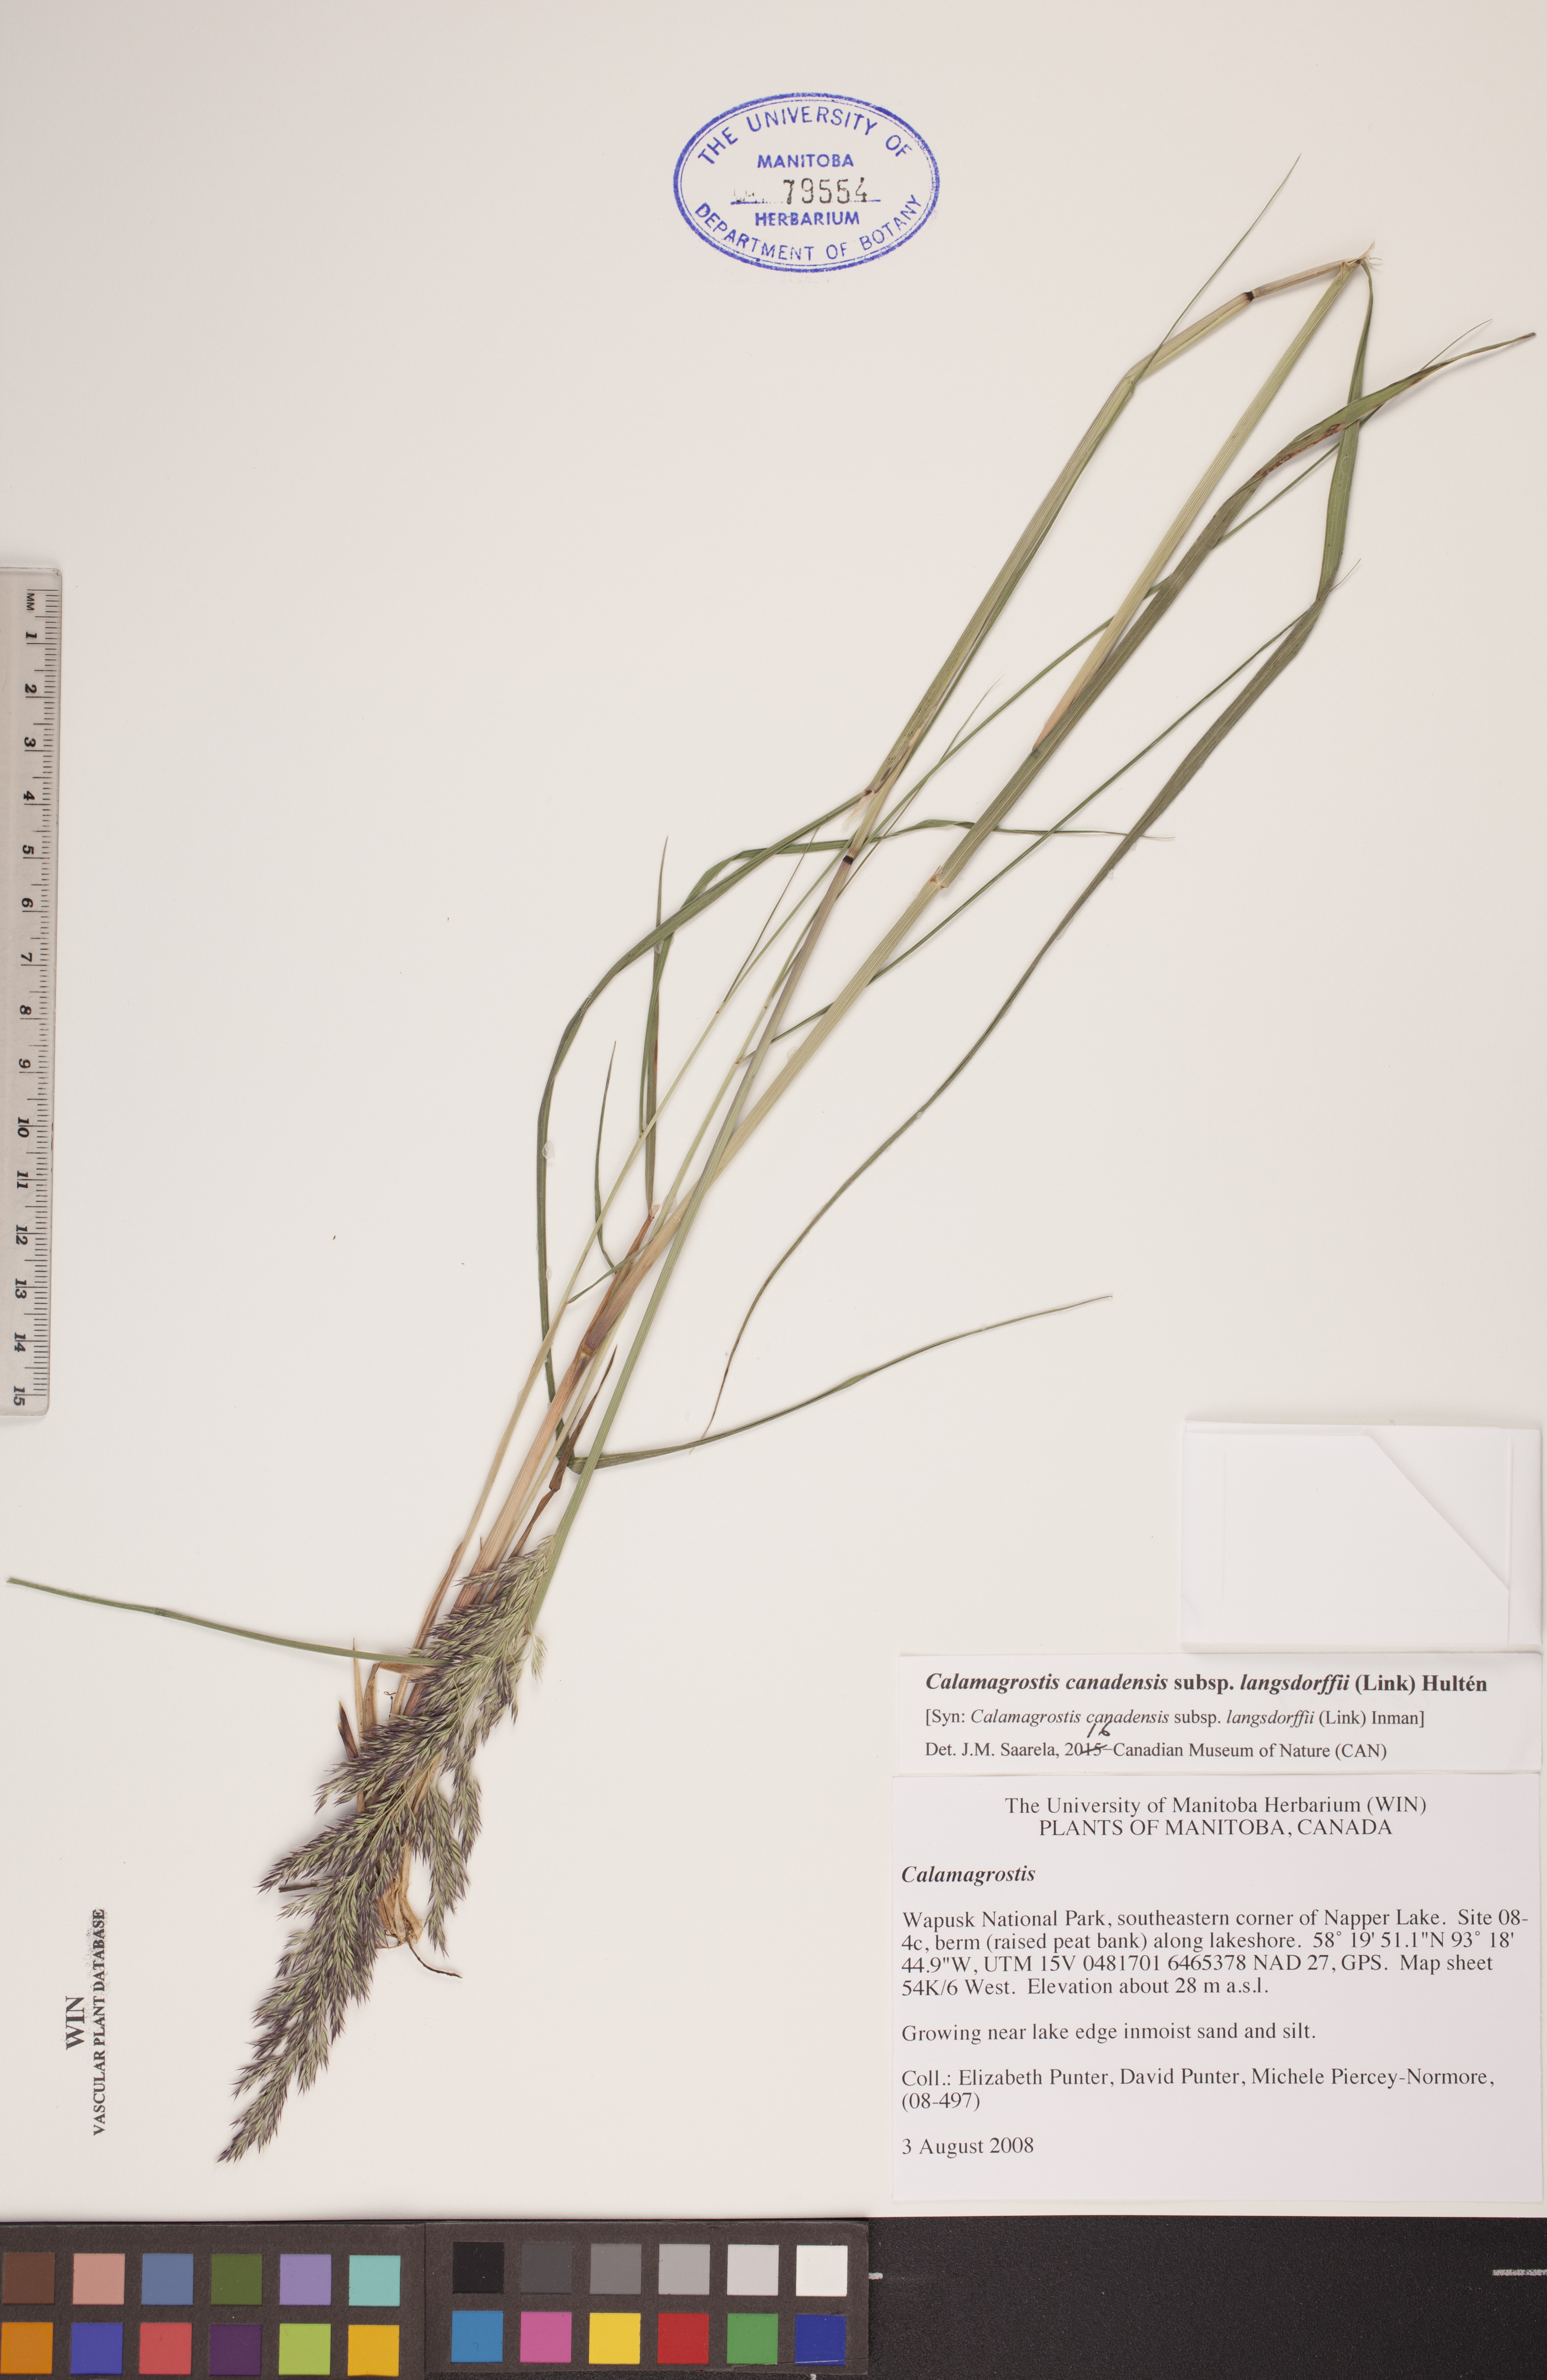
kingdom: Plantae
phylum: Tracheophyta
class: Liliopsida
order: Poales
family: Poaceae
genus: Calamagrostis
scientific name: Calamagrostis purpurea
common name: Scandinavian small-reed
